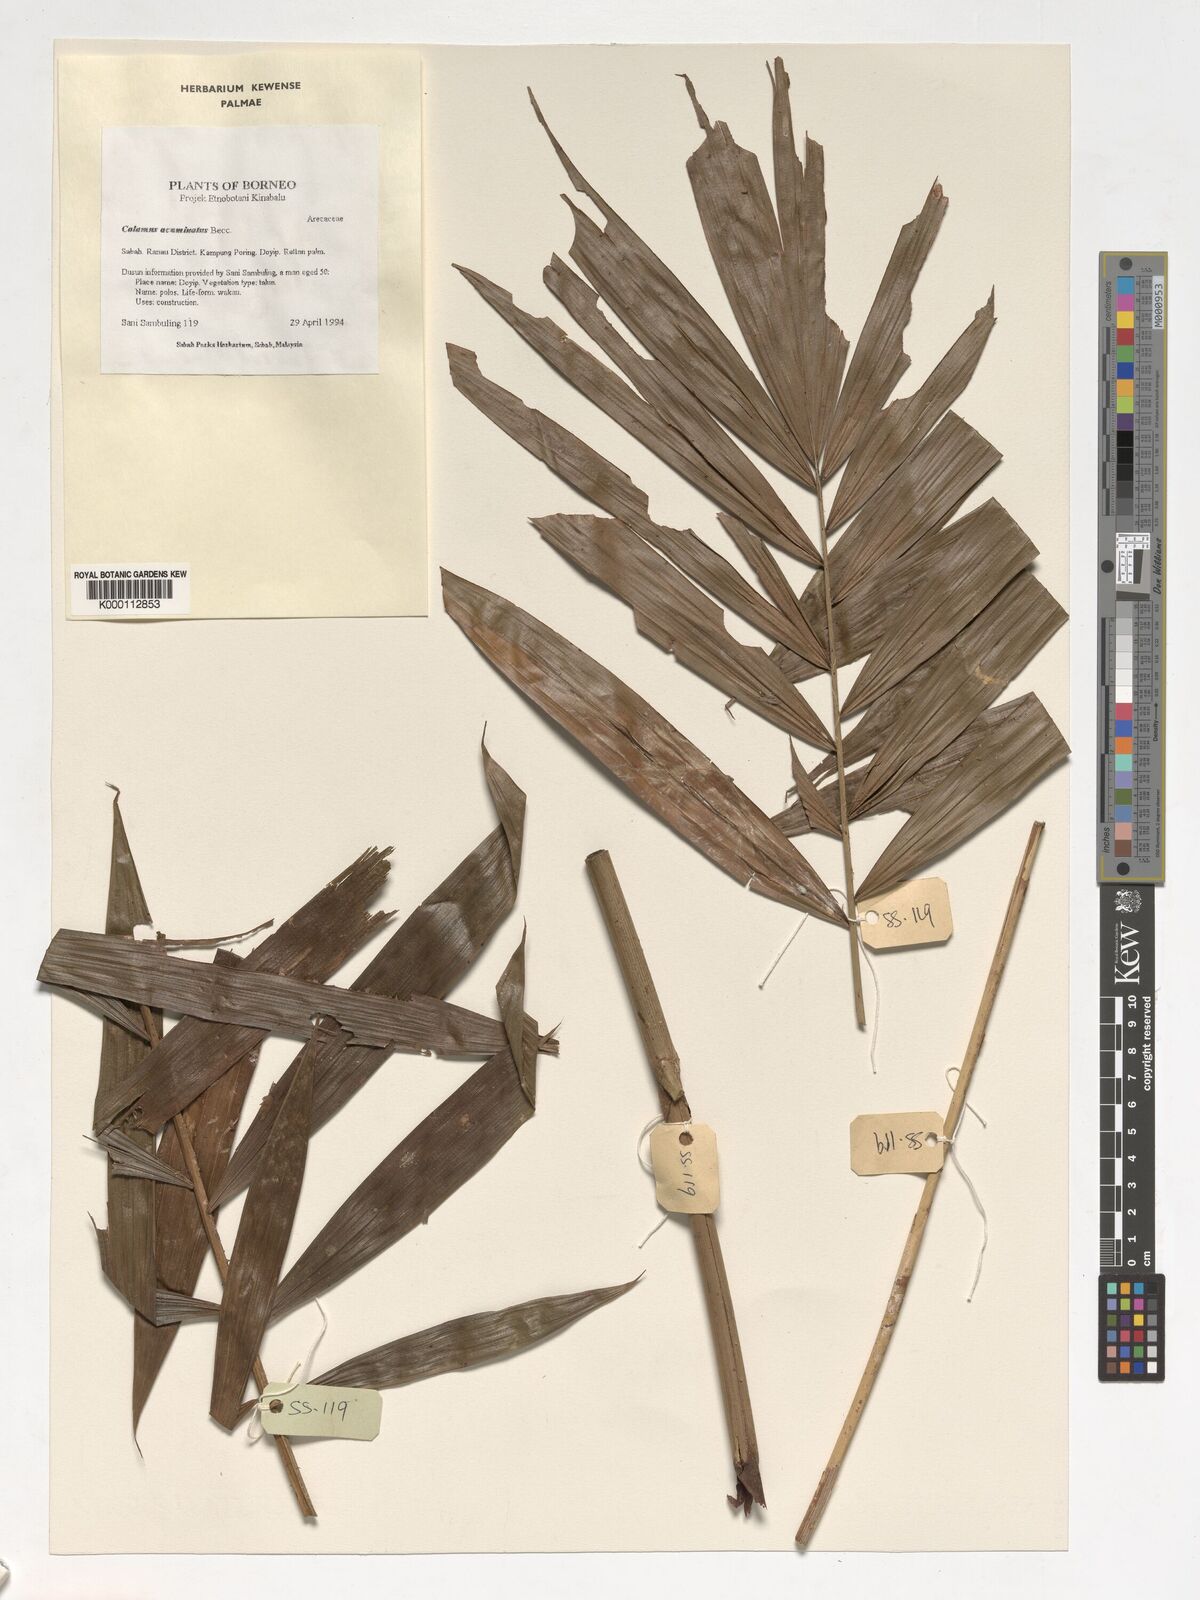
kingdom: Plantae
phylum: Tracheophyta
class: Liliopsida
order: Arecales
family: Arecaceae
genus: Calamus
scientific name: Calamus javensis
